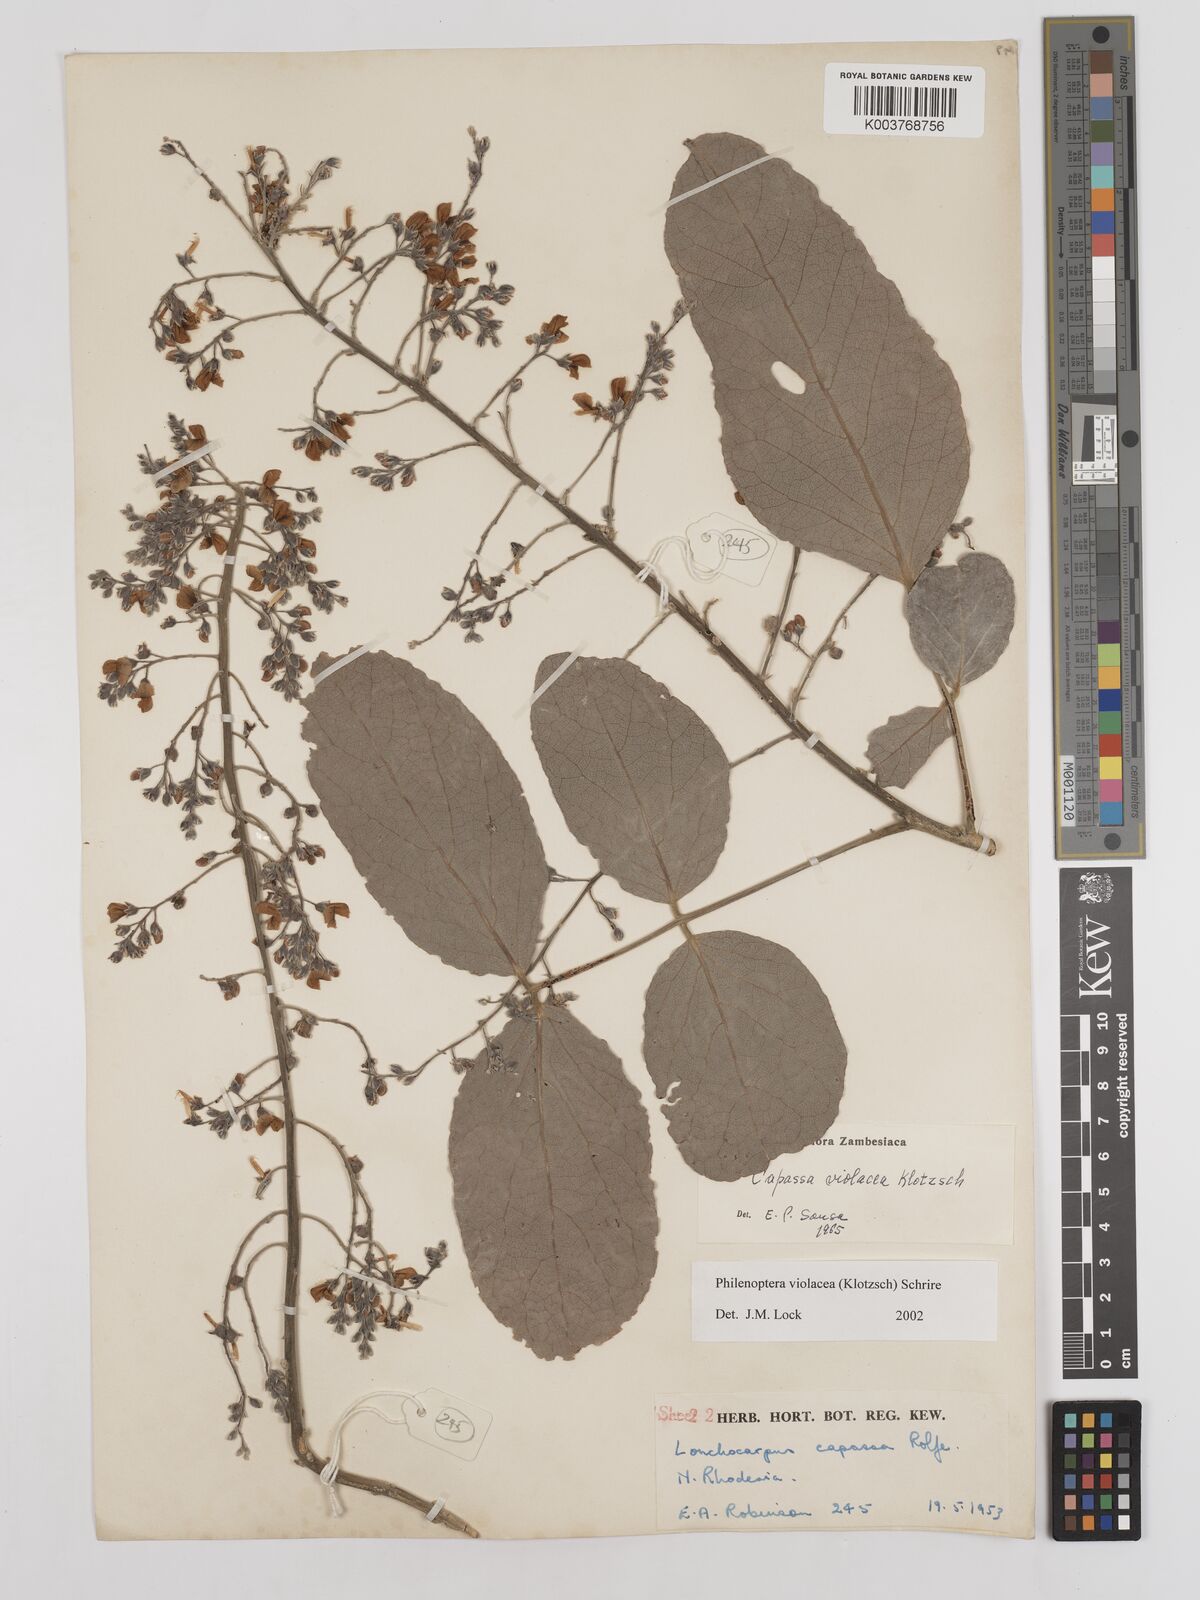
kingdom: Plantae
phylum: Tracheophyta
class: Magnoliopsida
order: Fabales
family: Fabaceae
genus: Philenoptera
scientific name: Philenoptera violacea
